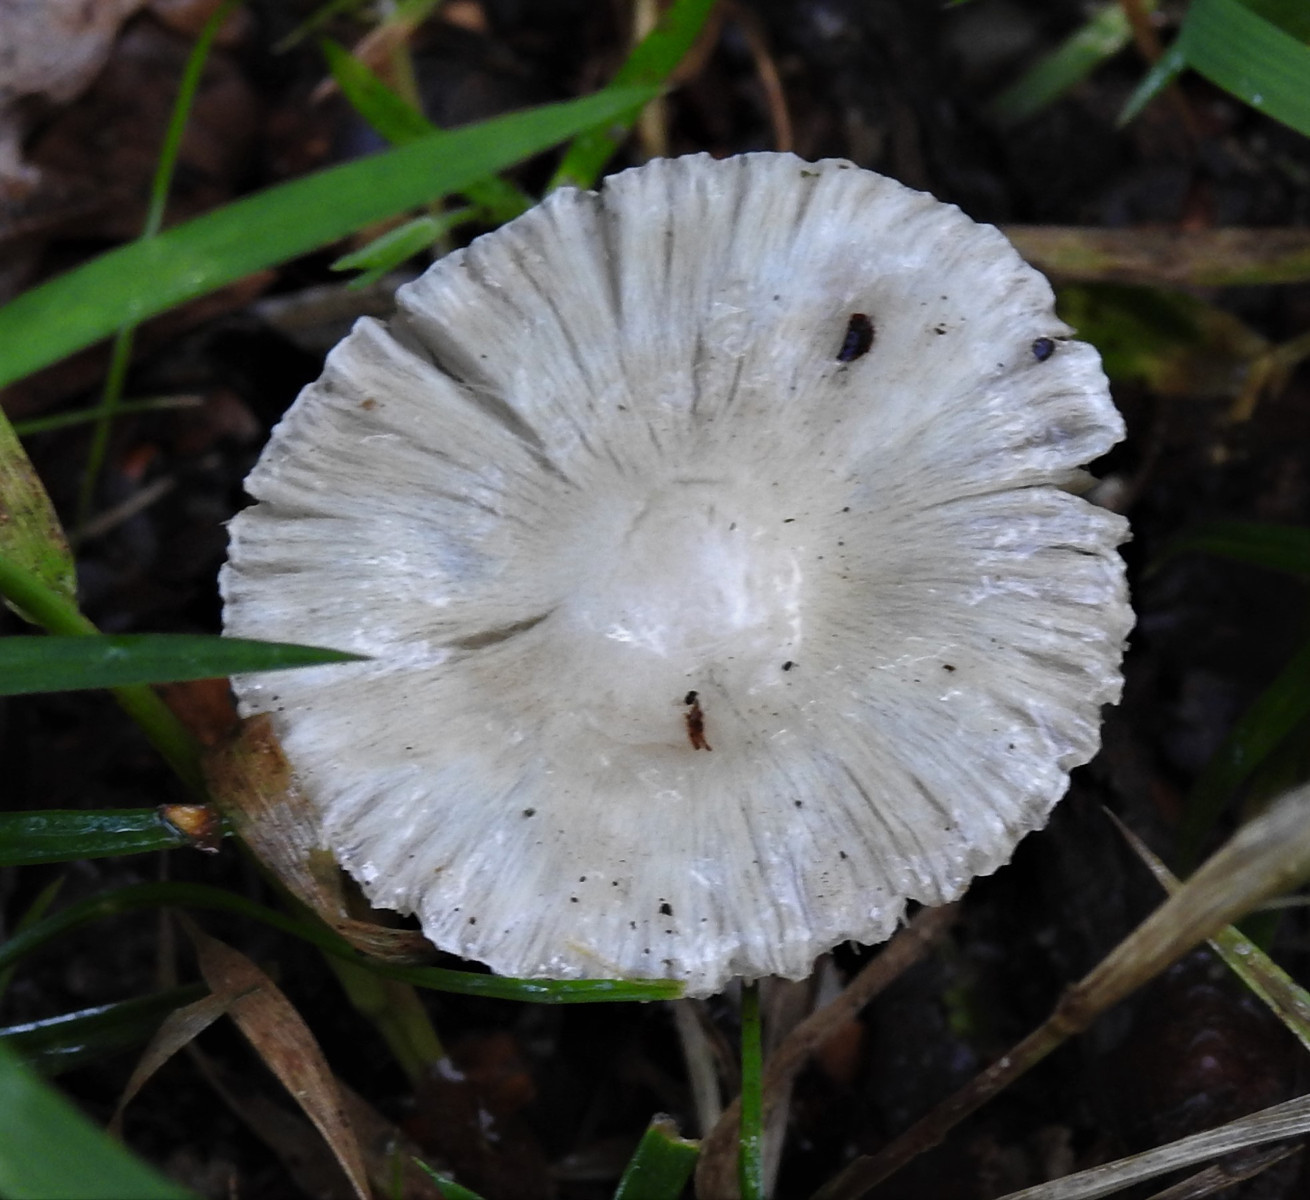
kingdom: Fungi
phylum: Basidiomycota
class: Agaricomycetes
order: Agaricales
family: Inocybaceae
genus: Inocybe
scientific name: Inocybe
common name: almindelig trævlhat
